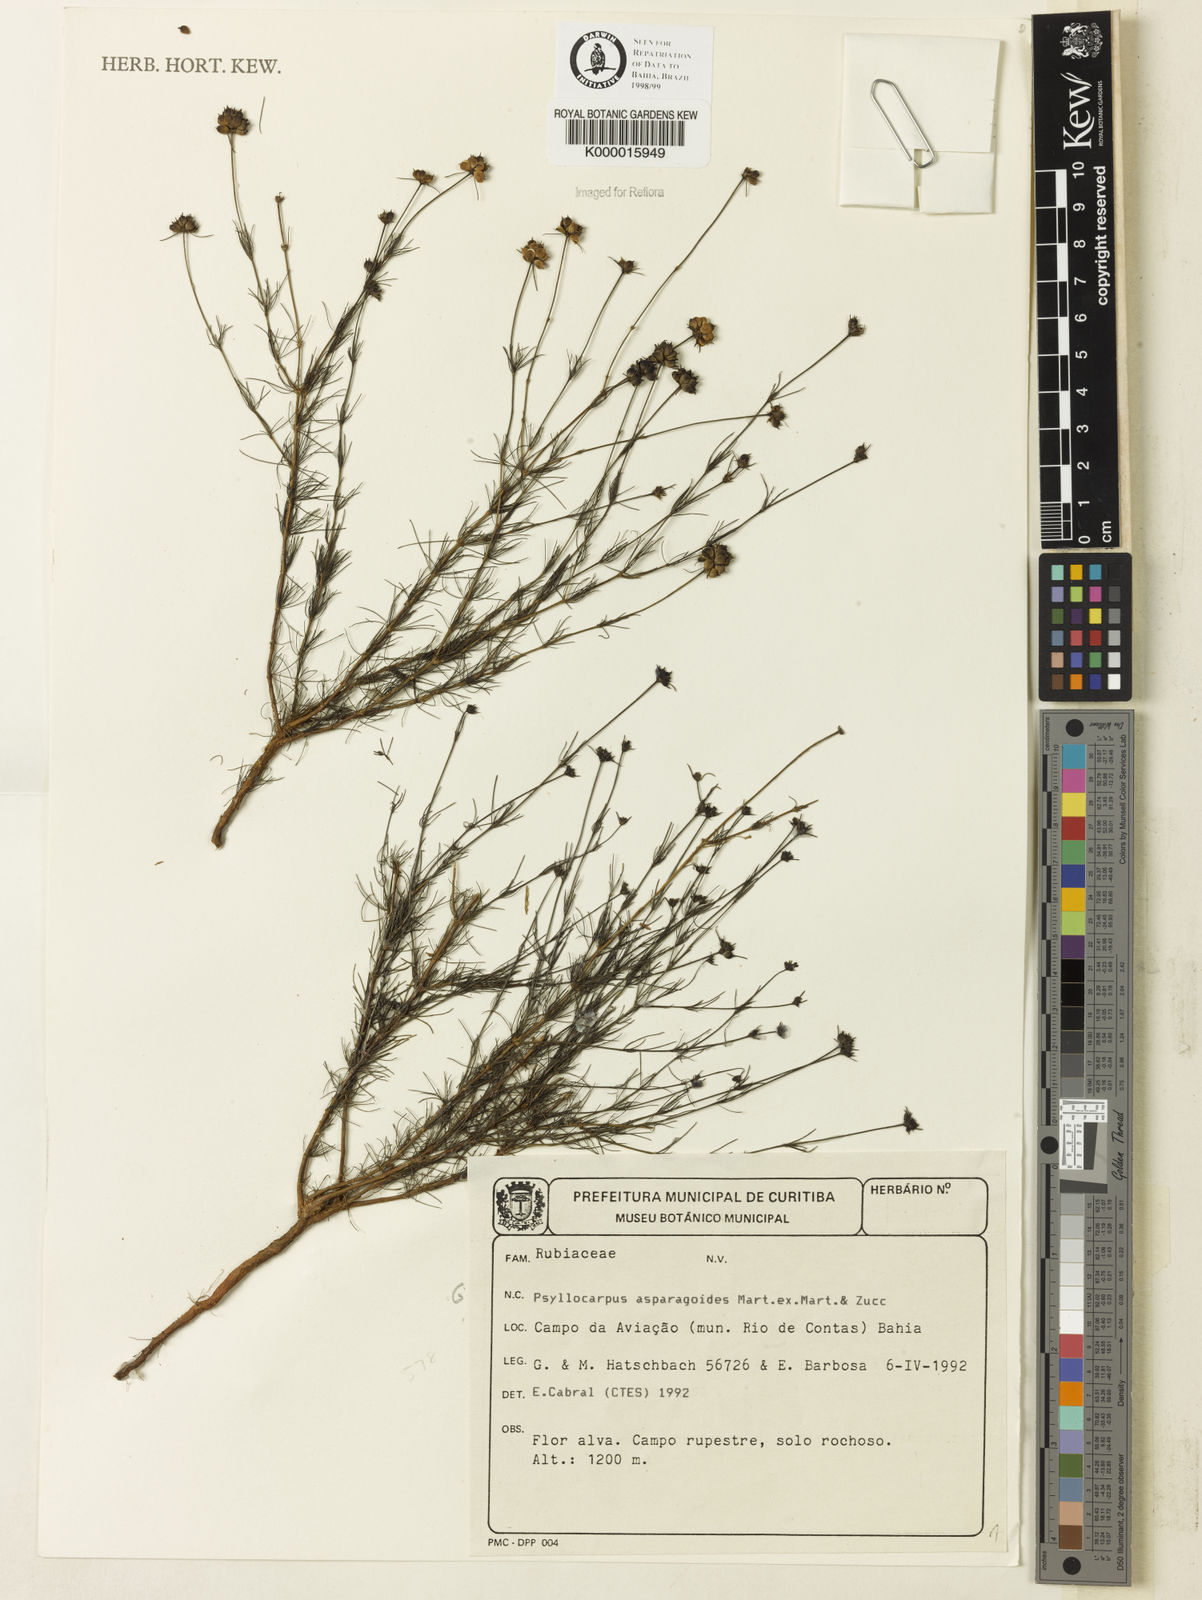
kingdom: Plantae
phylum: Tracheophyta
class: Magnoliopsida
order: Gentianales
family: Rubiaceae
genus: Psyllocarpus
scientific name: Psyllocarpus asparagoides
